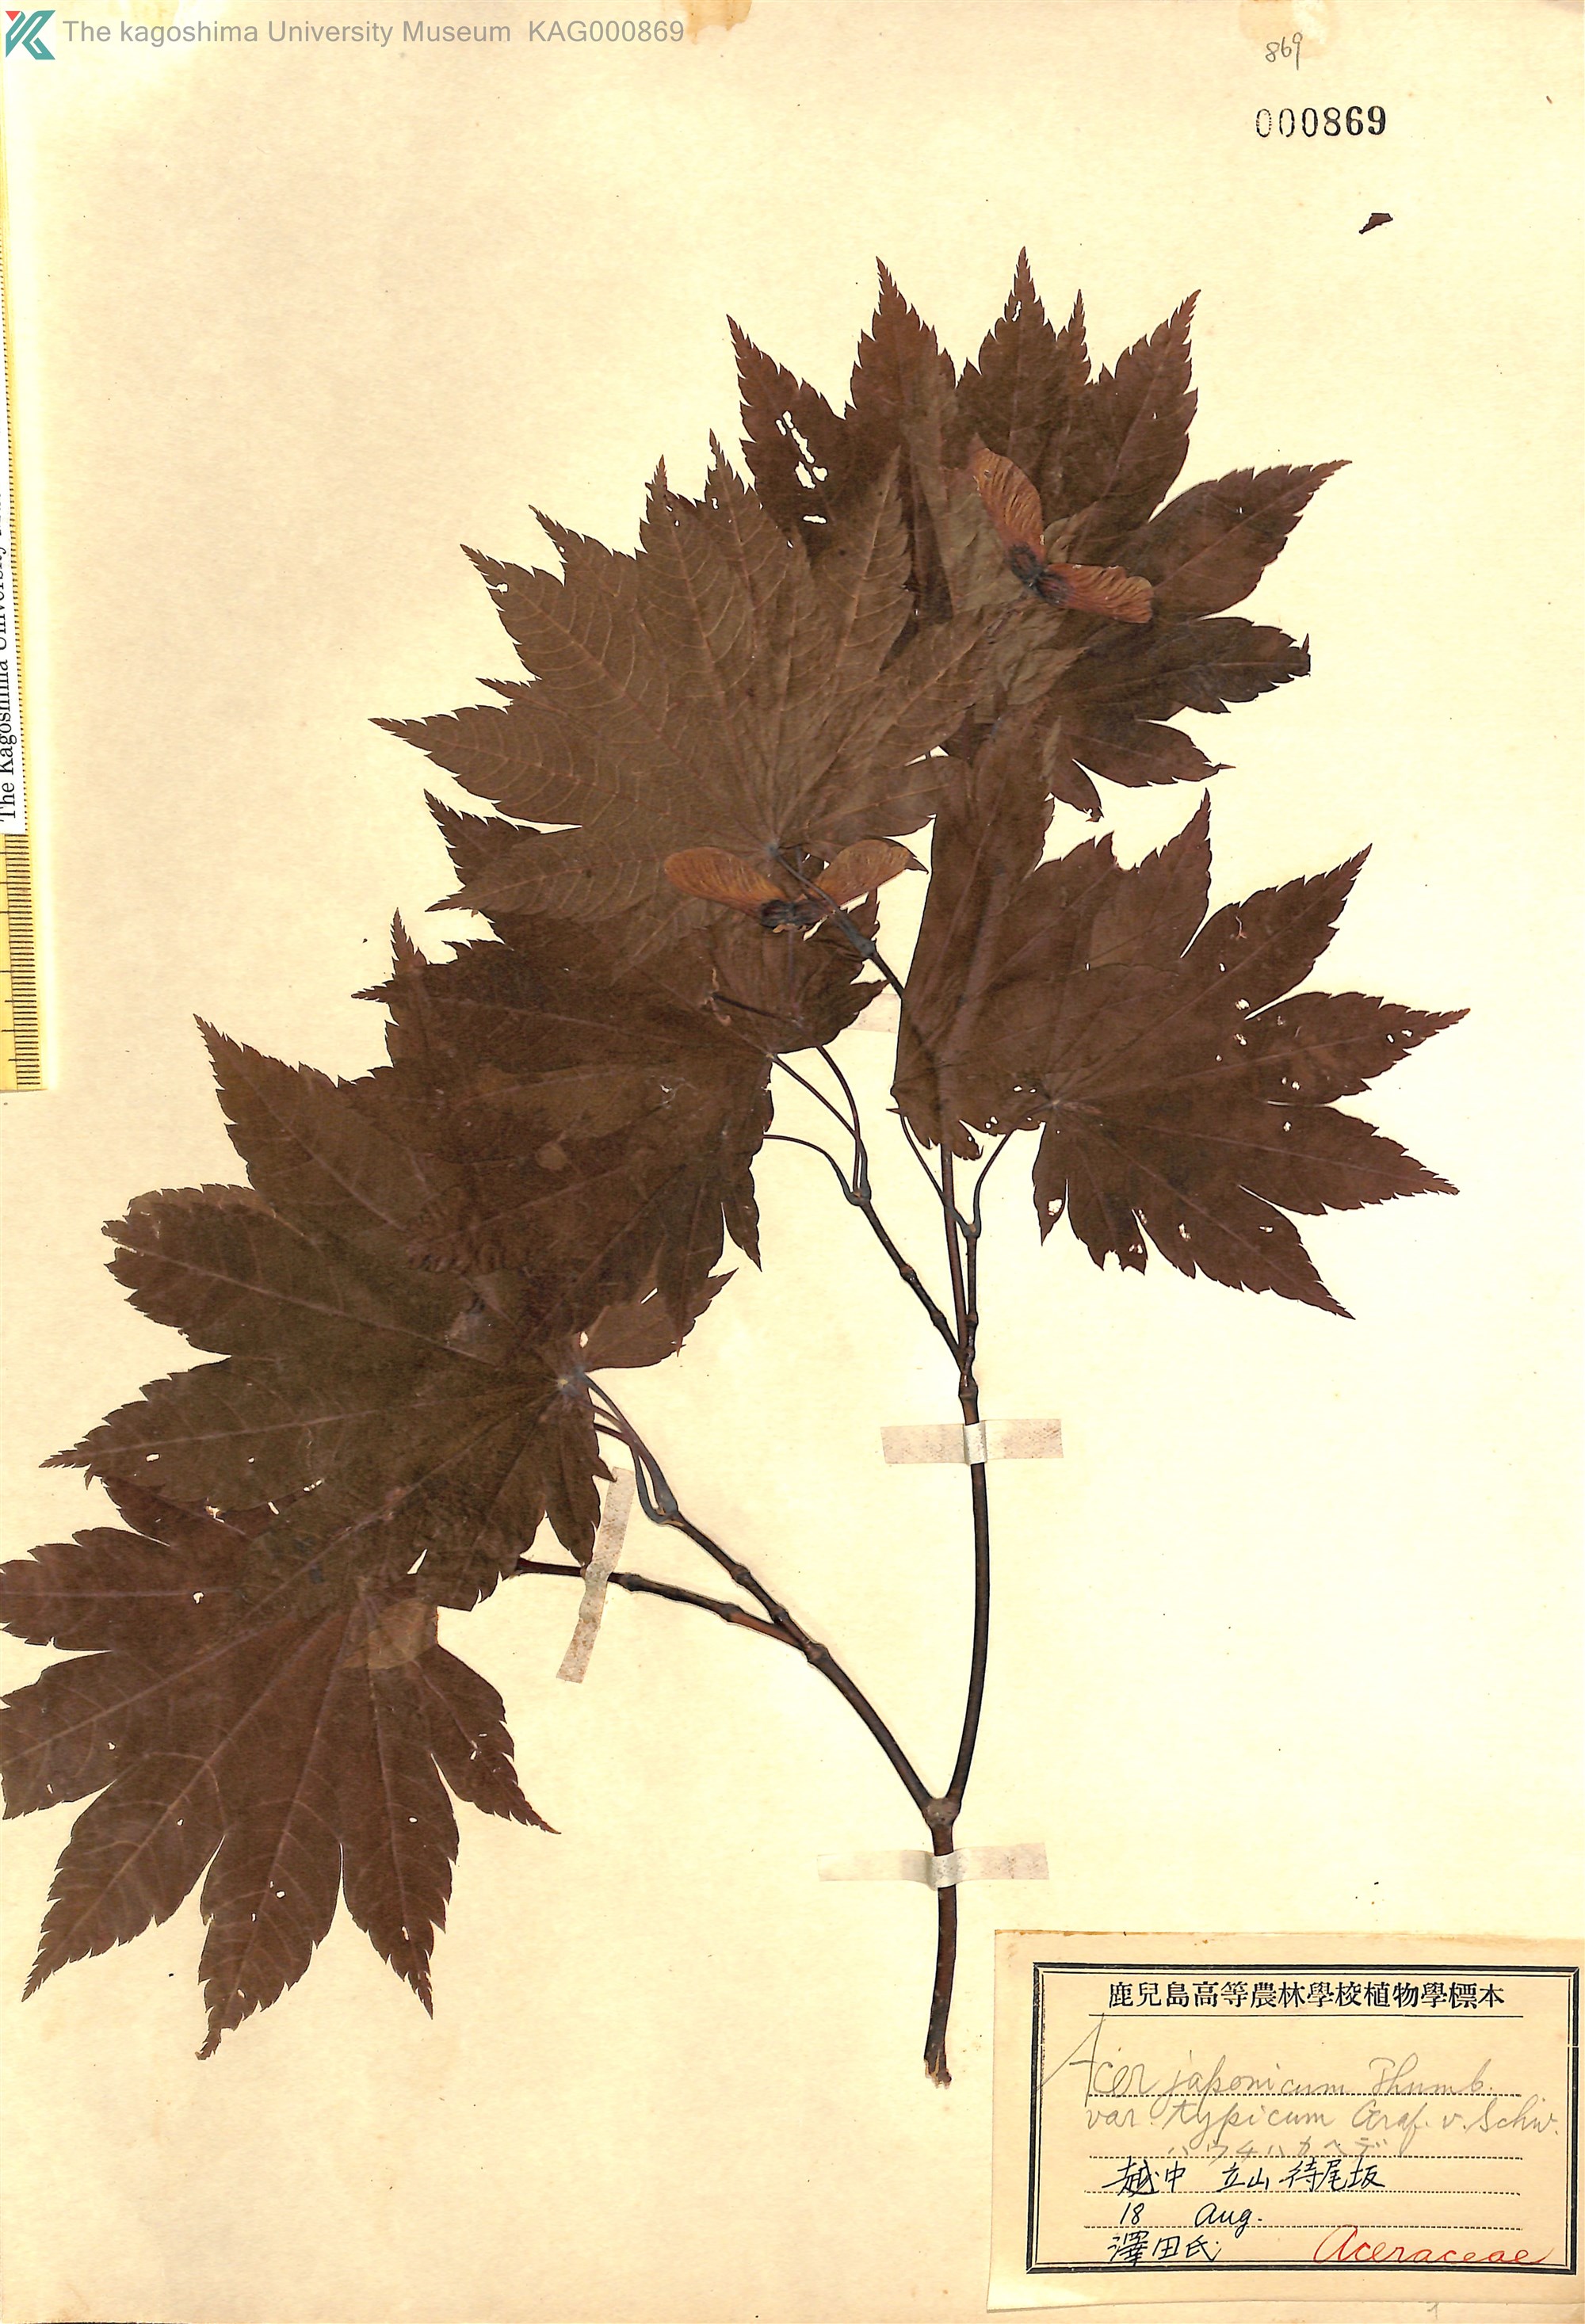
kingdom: Plantae
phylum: Tracheophyta
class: Magnoliopsida
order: Sapindales
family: Sapindaceae
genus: Acer
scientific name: Acer japonicum
